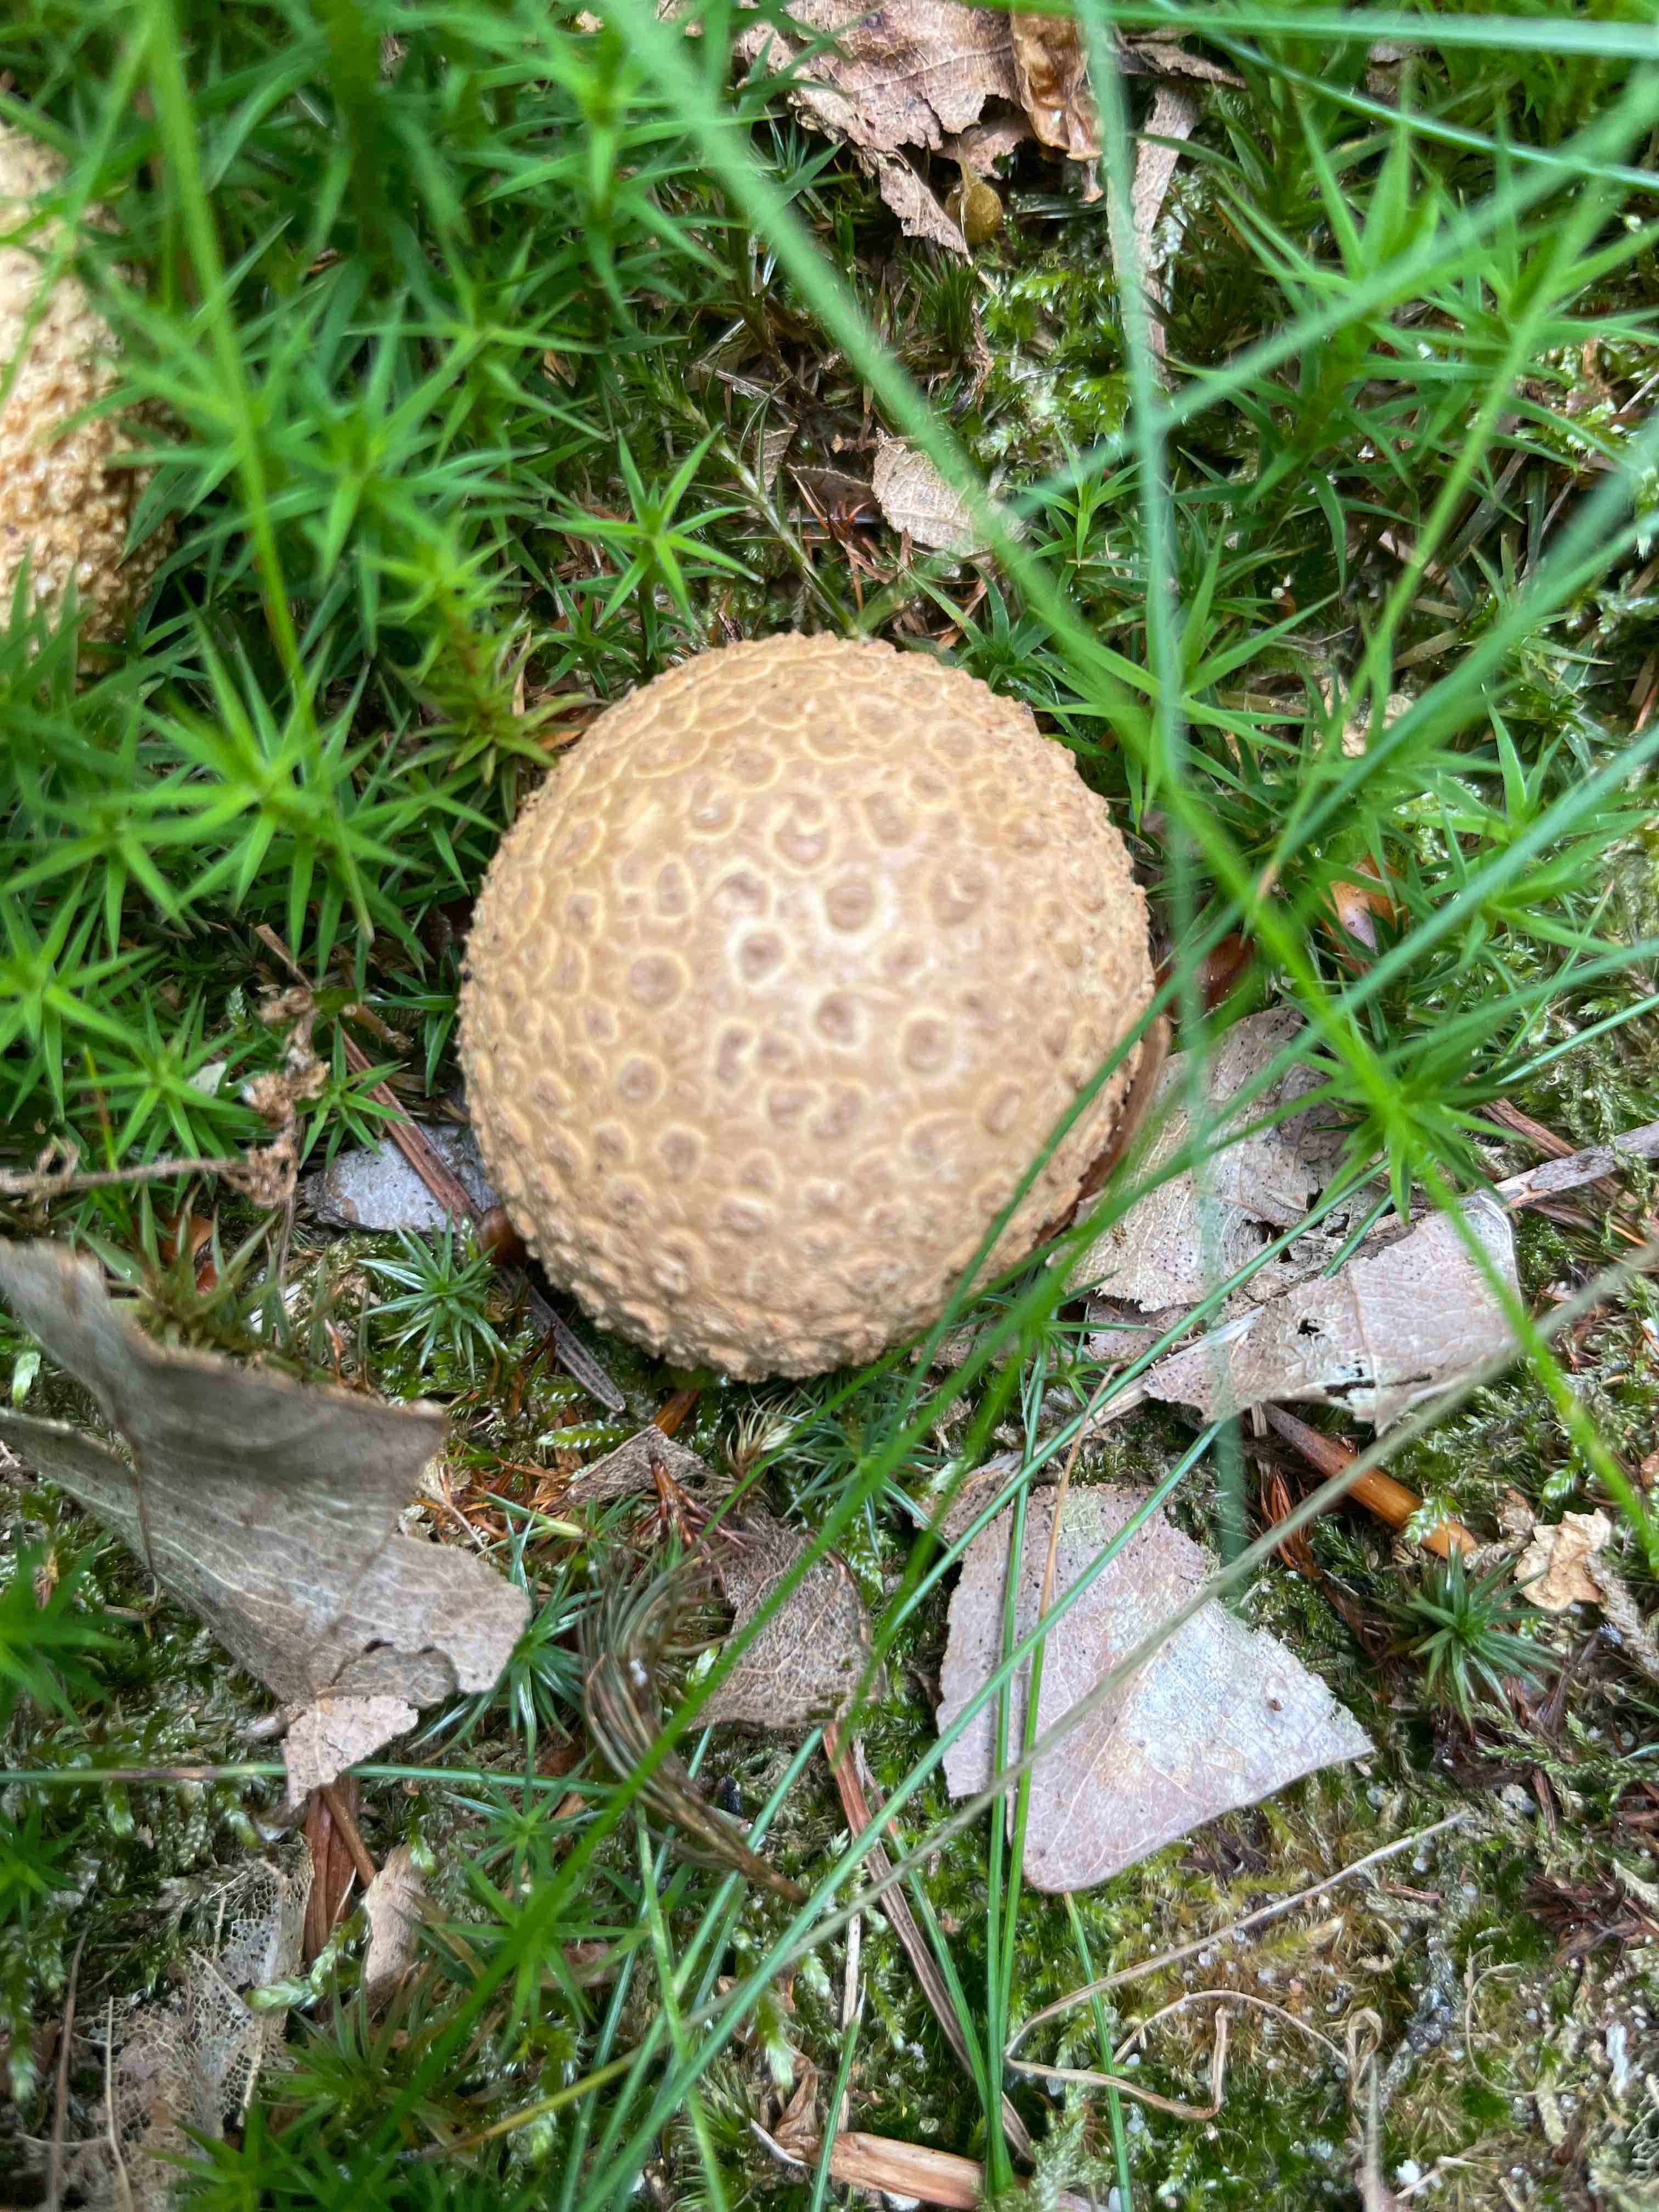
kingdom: Fungi
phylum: Basidiomycota
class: Agaricomycetes
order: Boletales
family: Sclerodermataceae
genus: Scleroderma
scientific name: Scleroderma citrinum
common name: almindelig bruskbold
